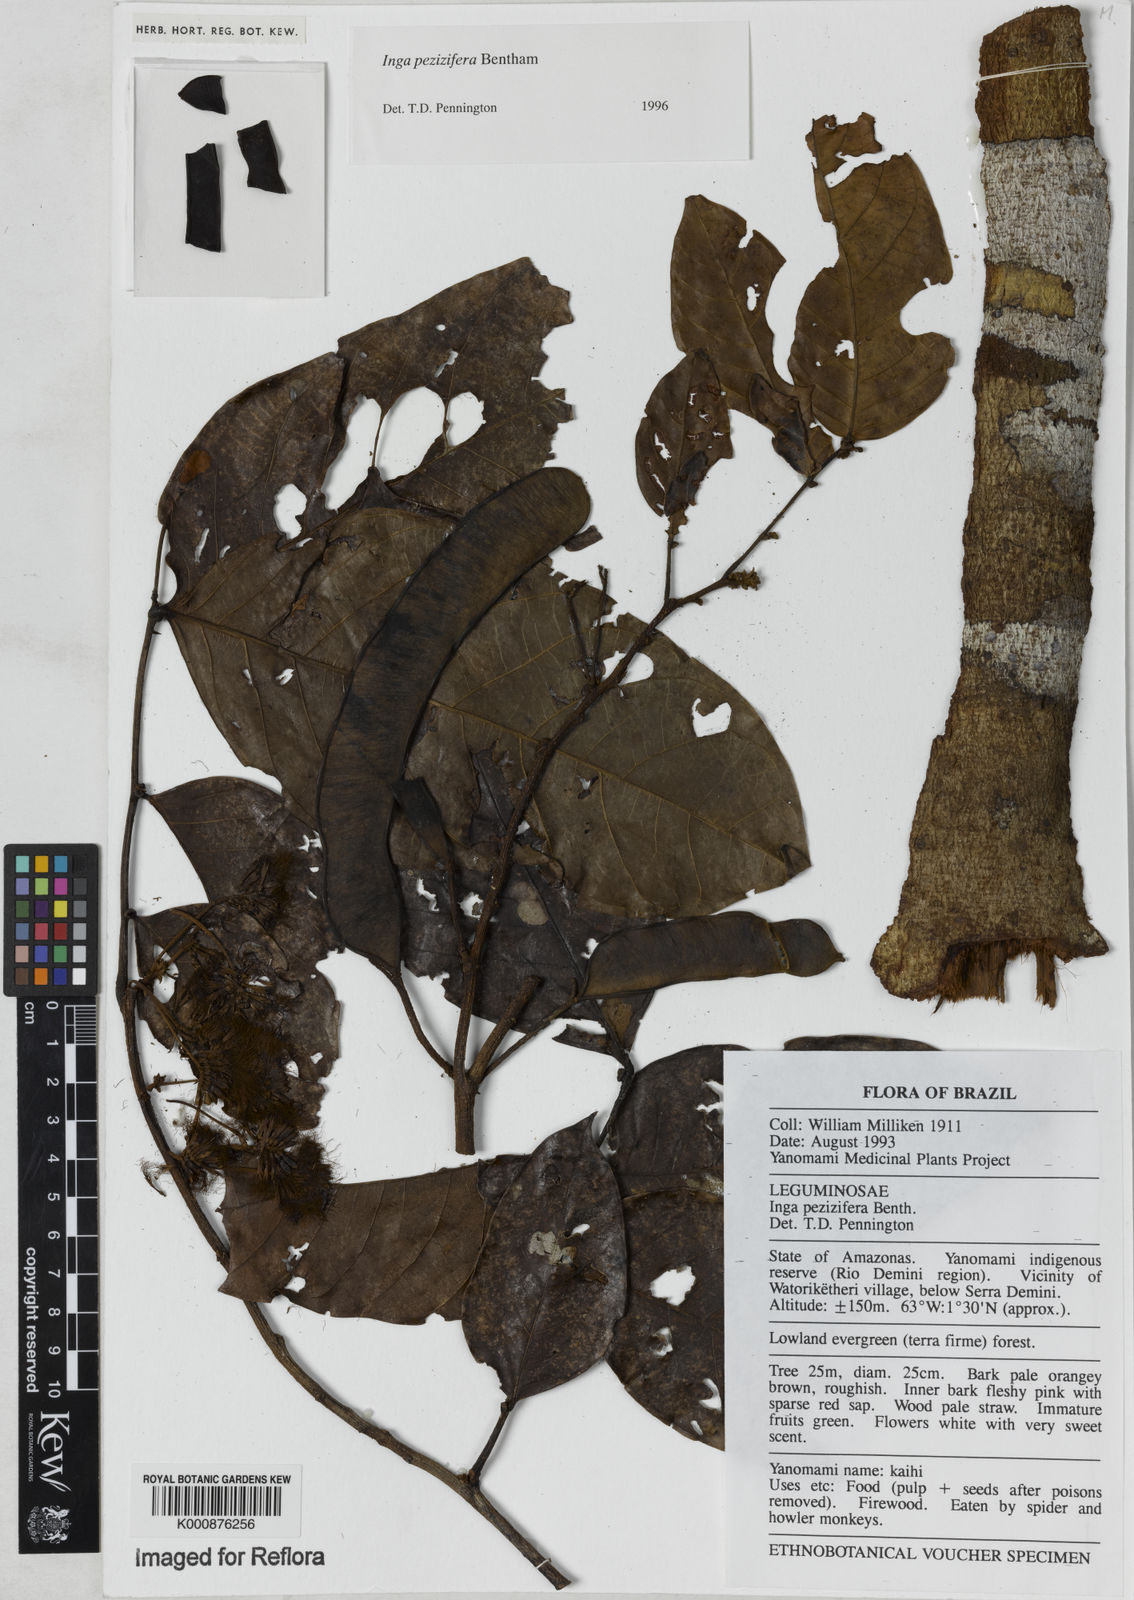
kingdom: Plantae
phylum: Tracheophyta
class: Magnoliopsida
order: Fabales
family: Fabaceae
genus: Inga
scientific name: Inga pezizifera
